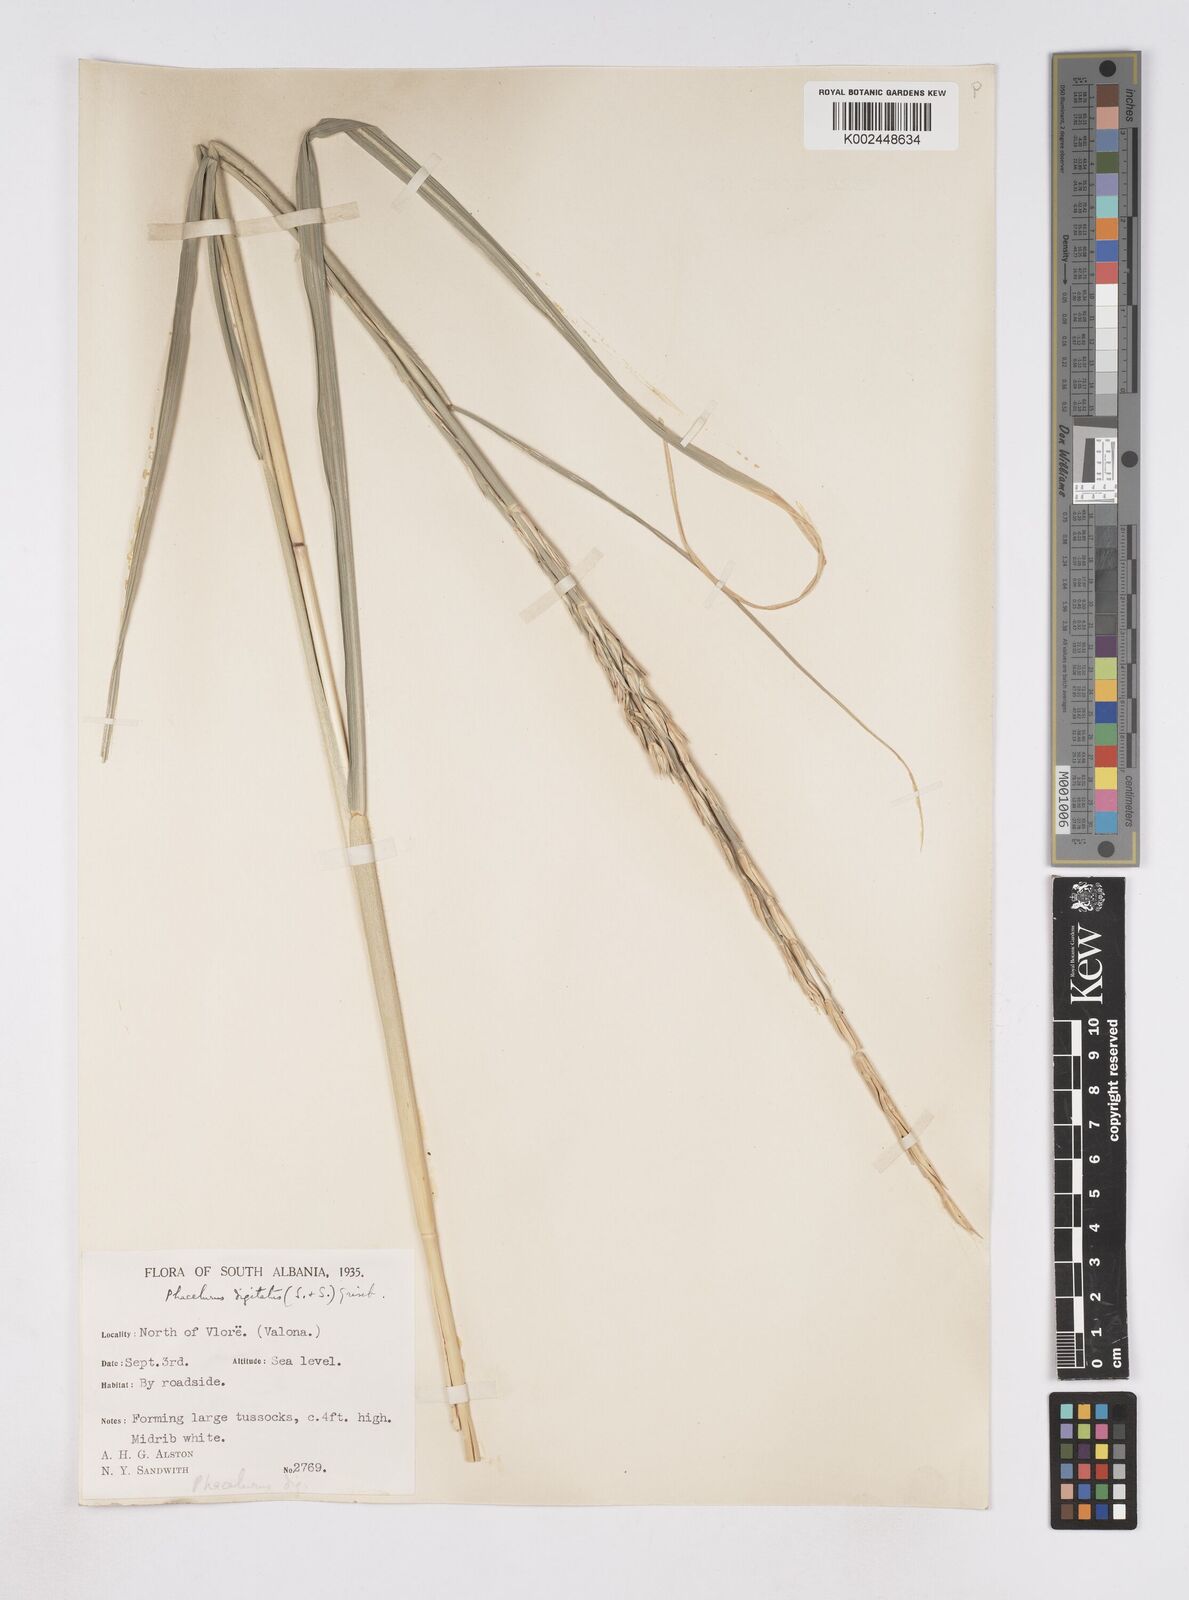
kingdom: Plantae
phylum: Tracheophyta
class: Liliopsida
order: Poales
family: Poaceae
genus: Phacelurus
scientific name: Phacelurus digitatus
